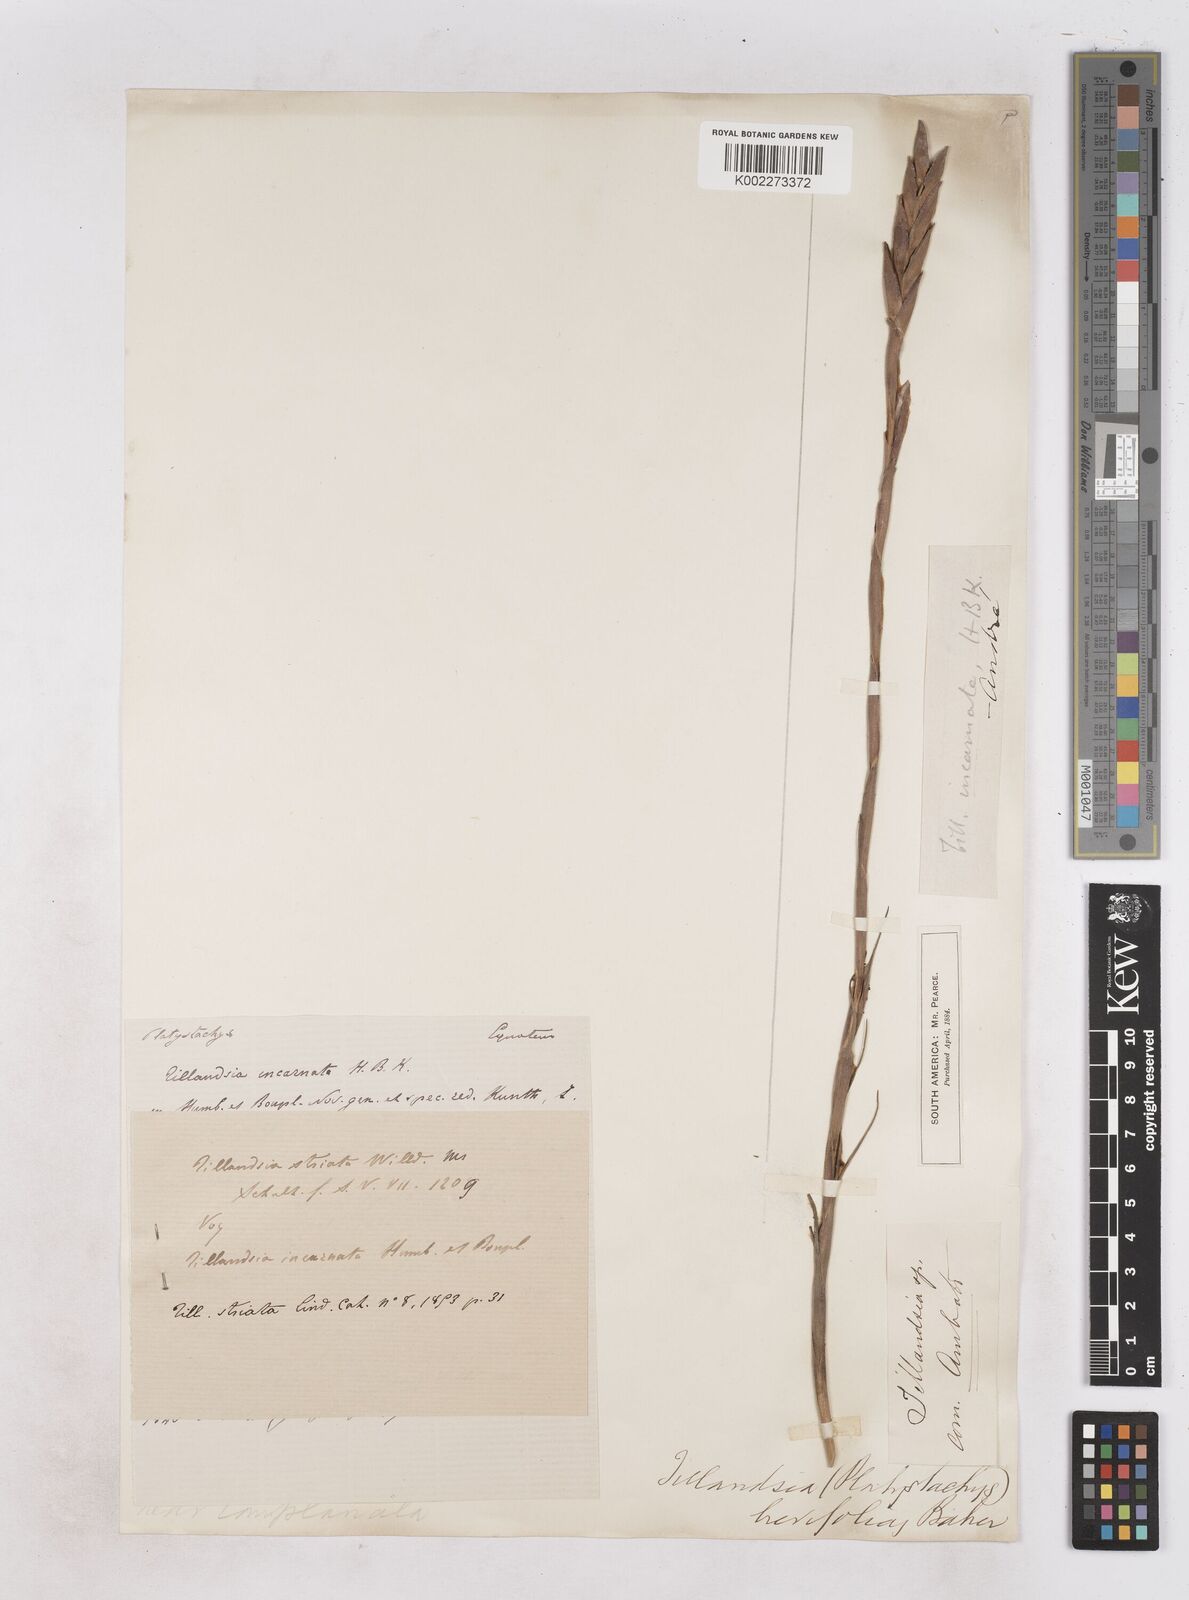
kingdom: Plantae
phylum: Tracheophyta
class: Liliopsida
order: Poales
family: Bromeliaceae
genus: Tillandsia
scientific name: Tillandsia incarnata
